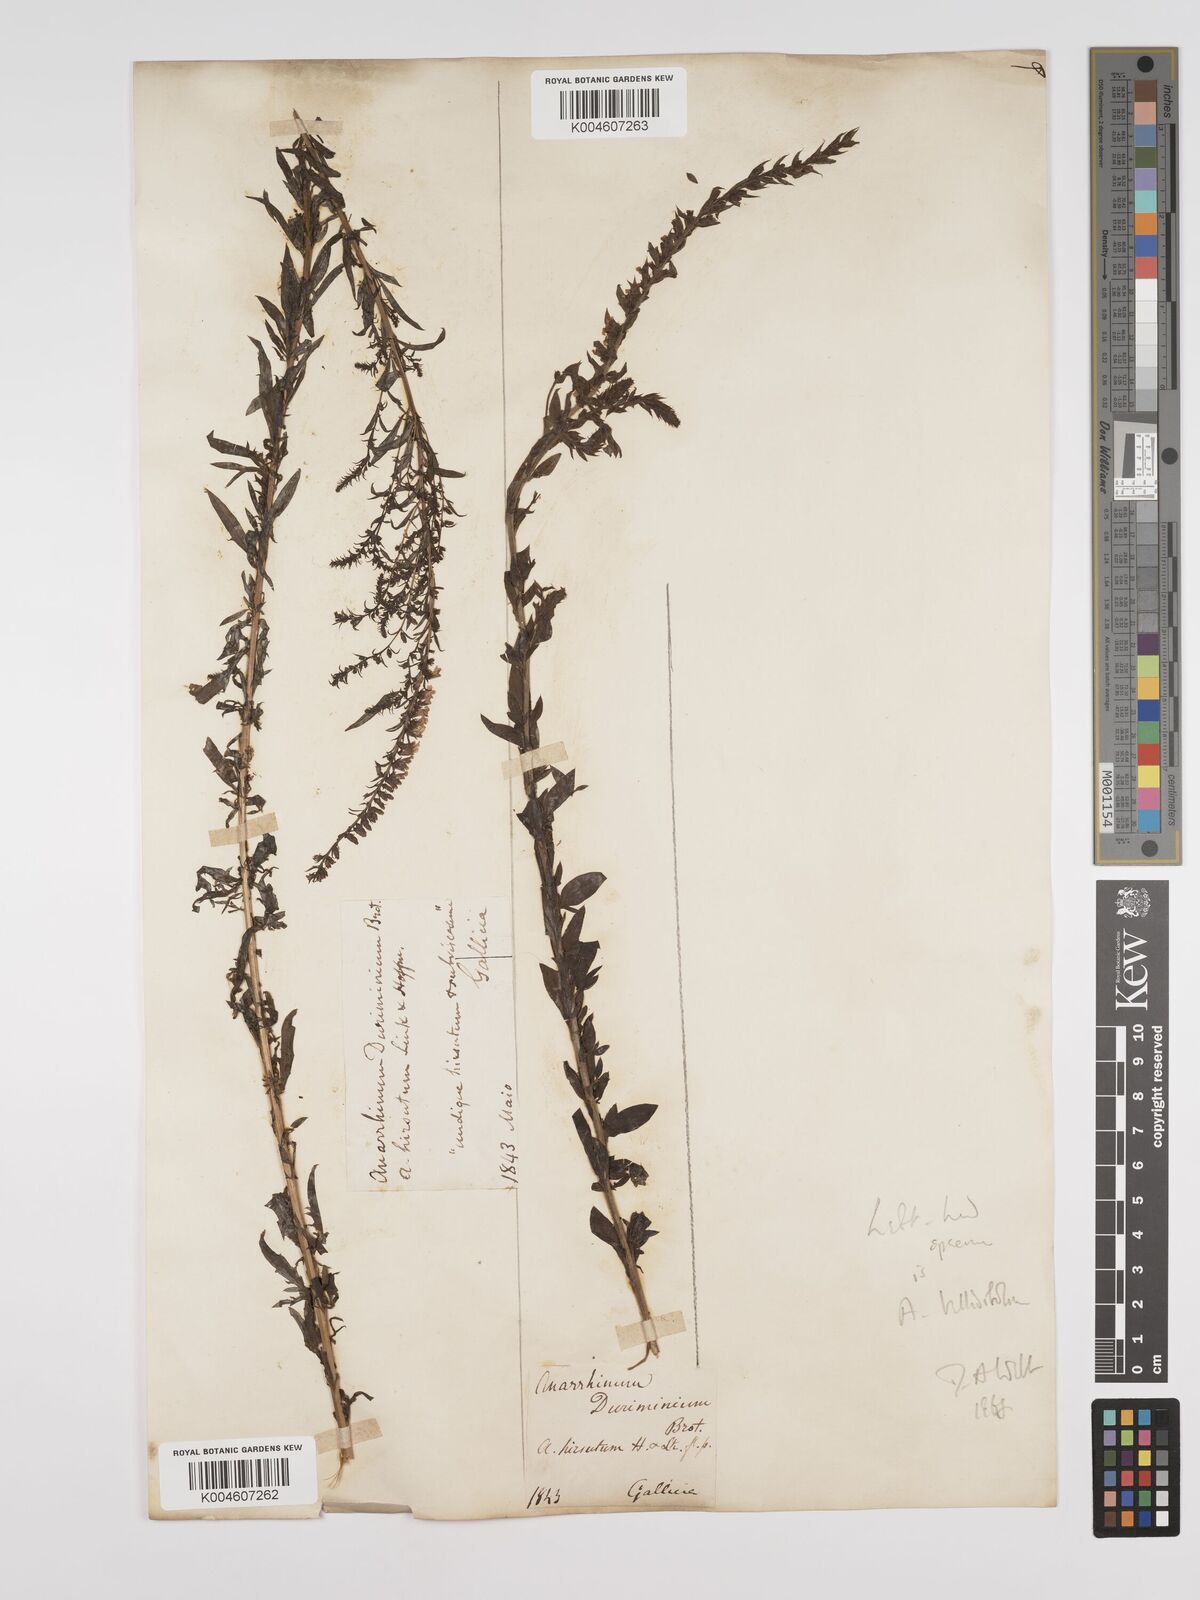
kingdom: Plantae
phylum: Tracheophyta
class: Magnoliopsida
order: Lamiales
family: Plantaginaceae
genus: Anarrhinum
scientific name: Anarrhinum duriminium
